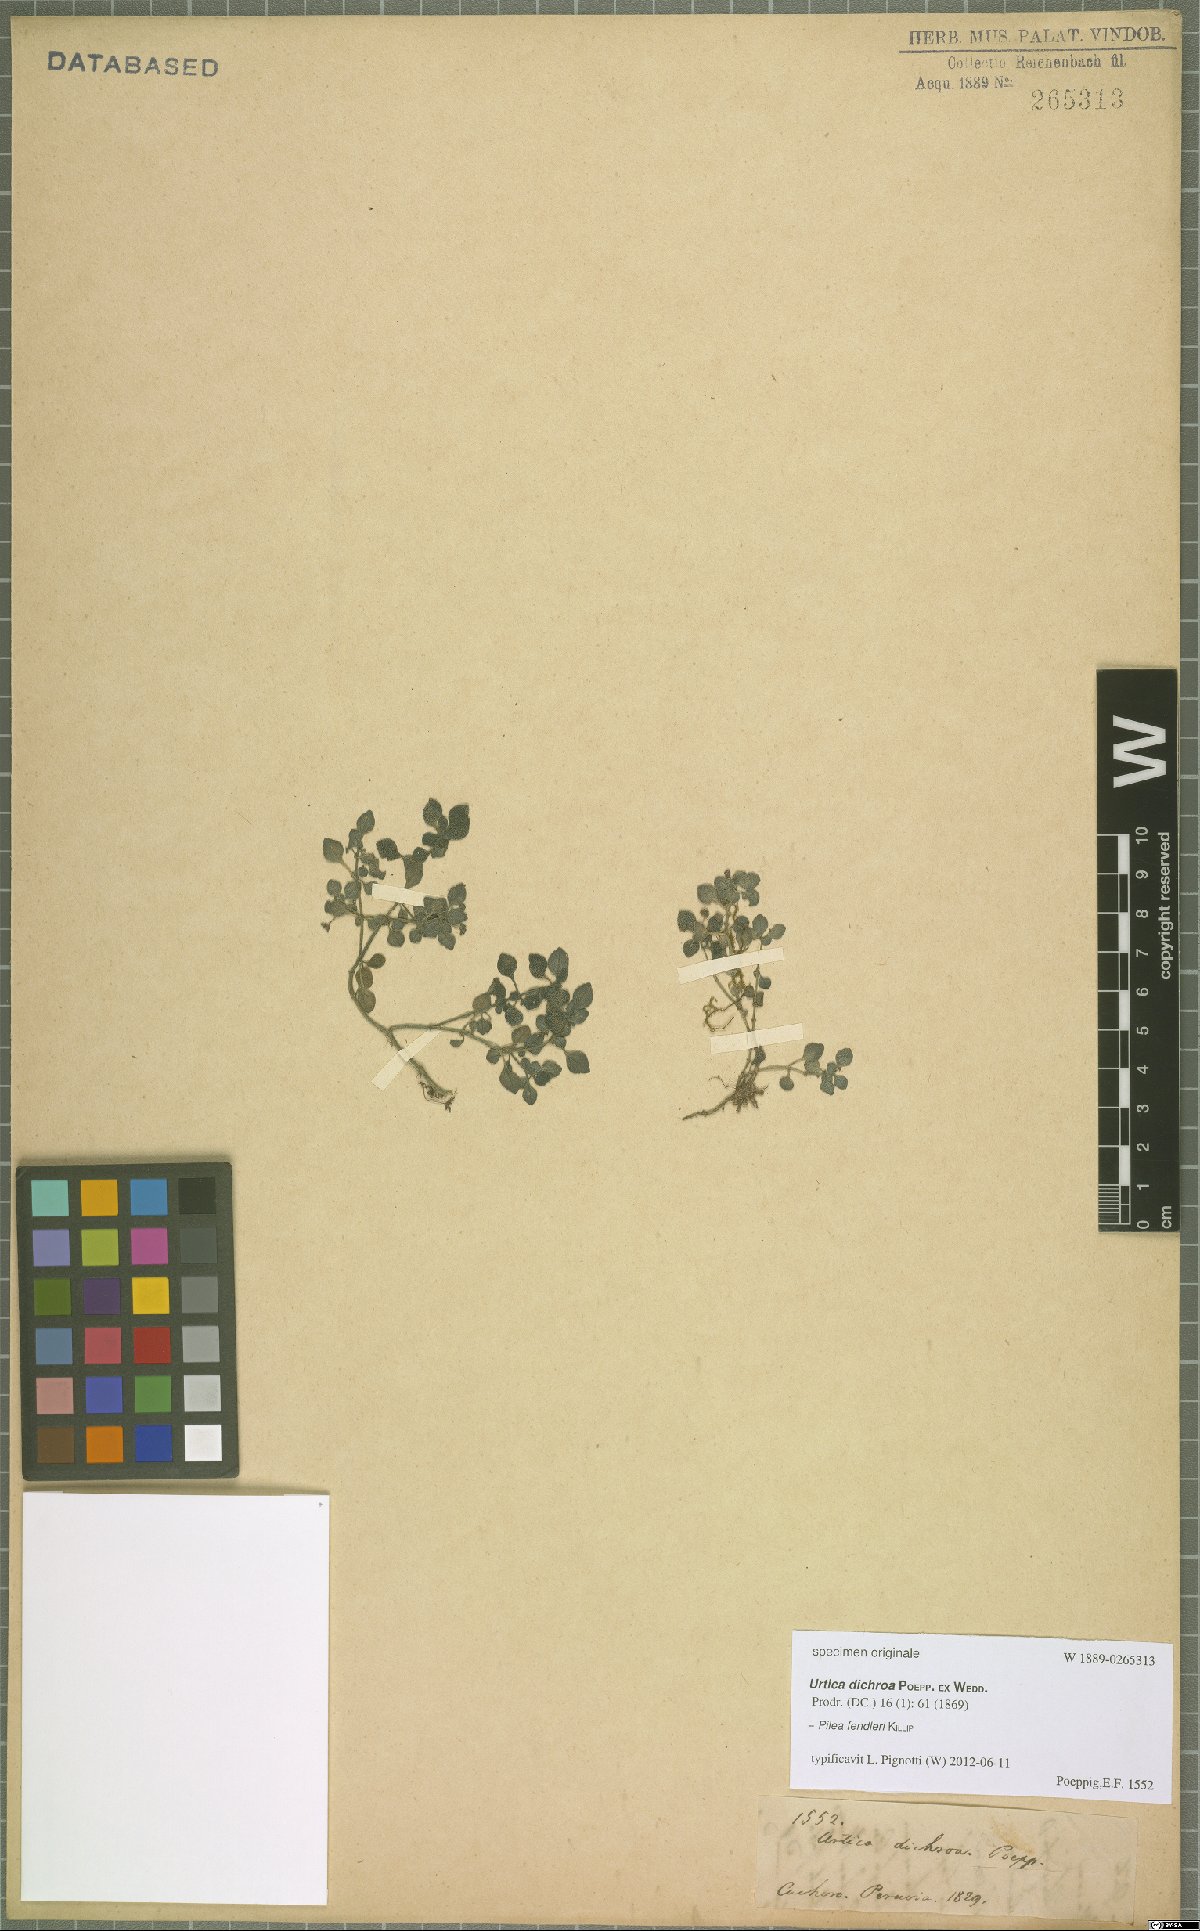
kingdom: Plantae
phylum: Tracheophyta
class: Magnoliopsida
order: Rosales
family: Urticaceae
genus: Pilea
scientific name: Pilea fendleri
